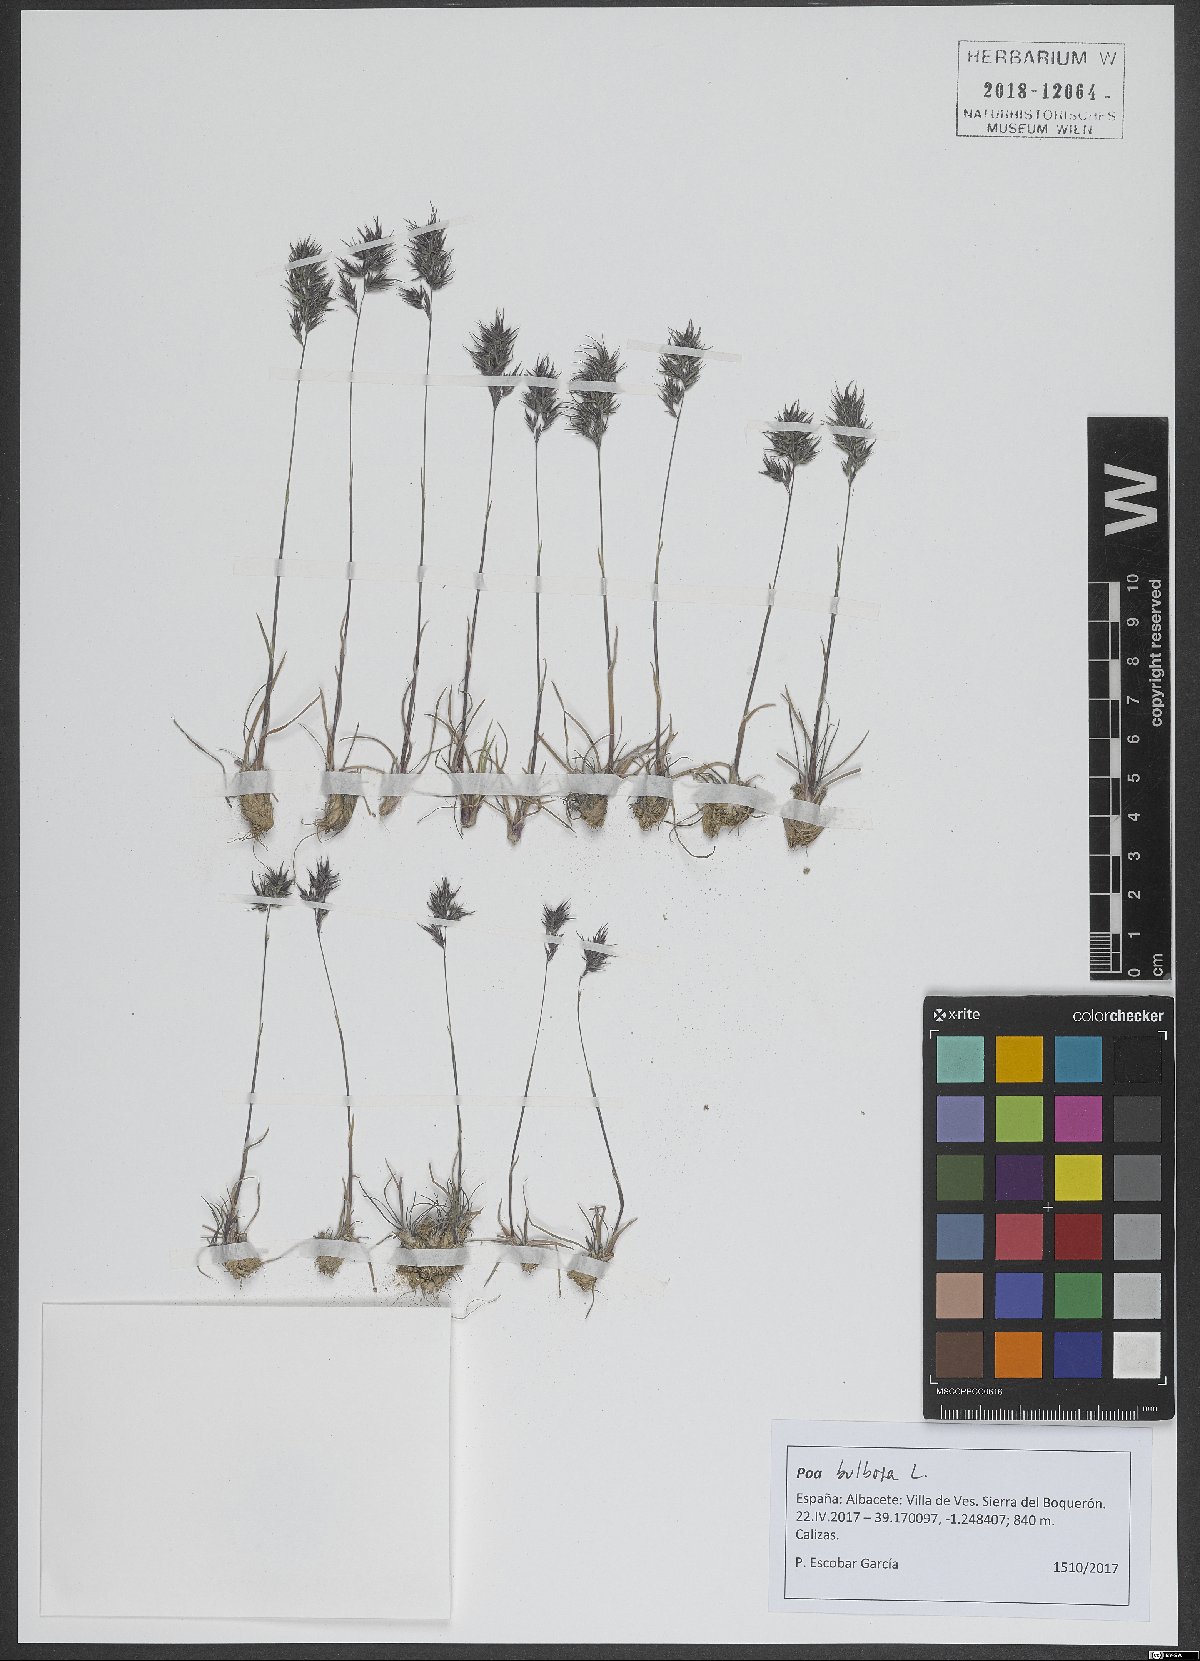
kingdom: Plantae
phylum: Tracheophyta
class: Liliopsida
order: Poales
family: Poaceae
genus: Poa
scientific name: Poa bulbosa
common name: Bulbous bluegrass
